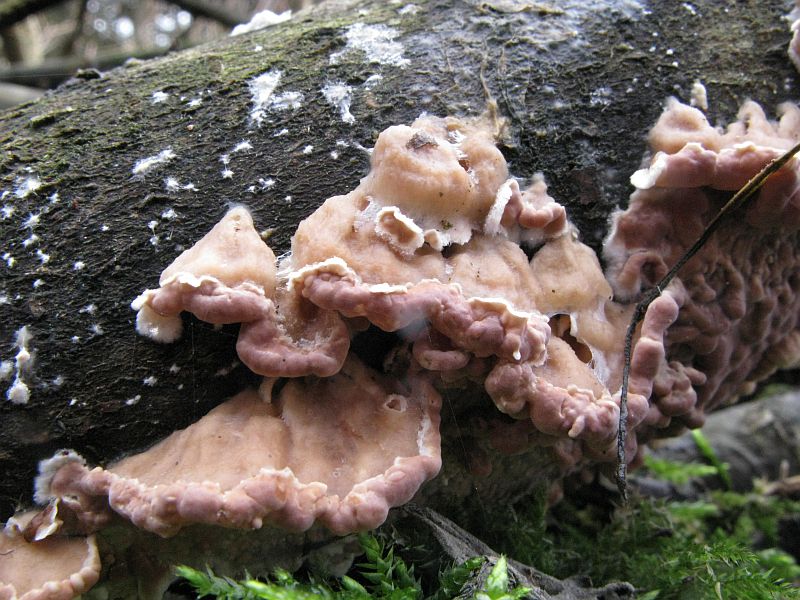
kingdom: Fungi
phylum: Basidiomycota
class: Agaricomycetes
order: Agaricales
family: Cyphellaceae
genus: Chondrostereum
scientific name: Chondrostereum purpureum
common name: purpurlædersvamp
